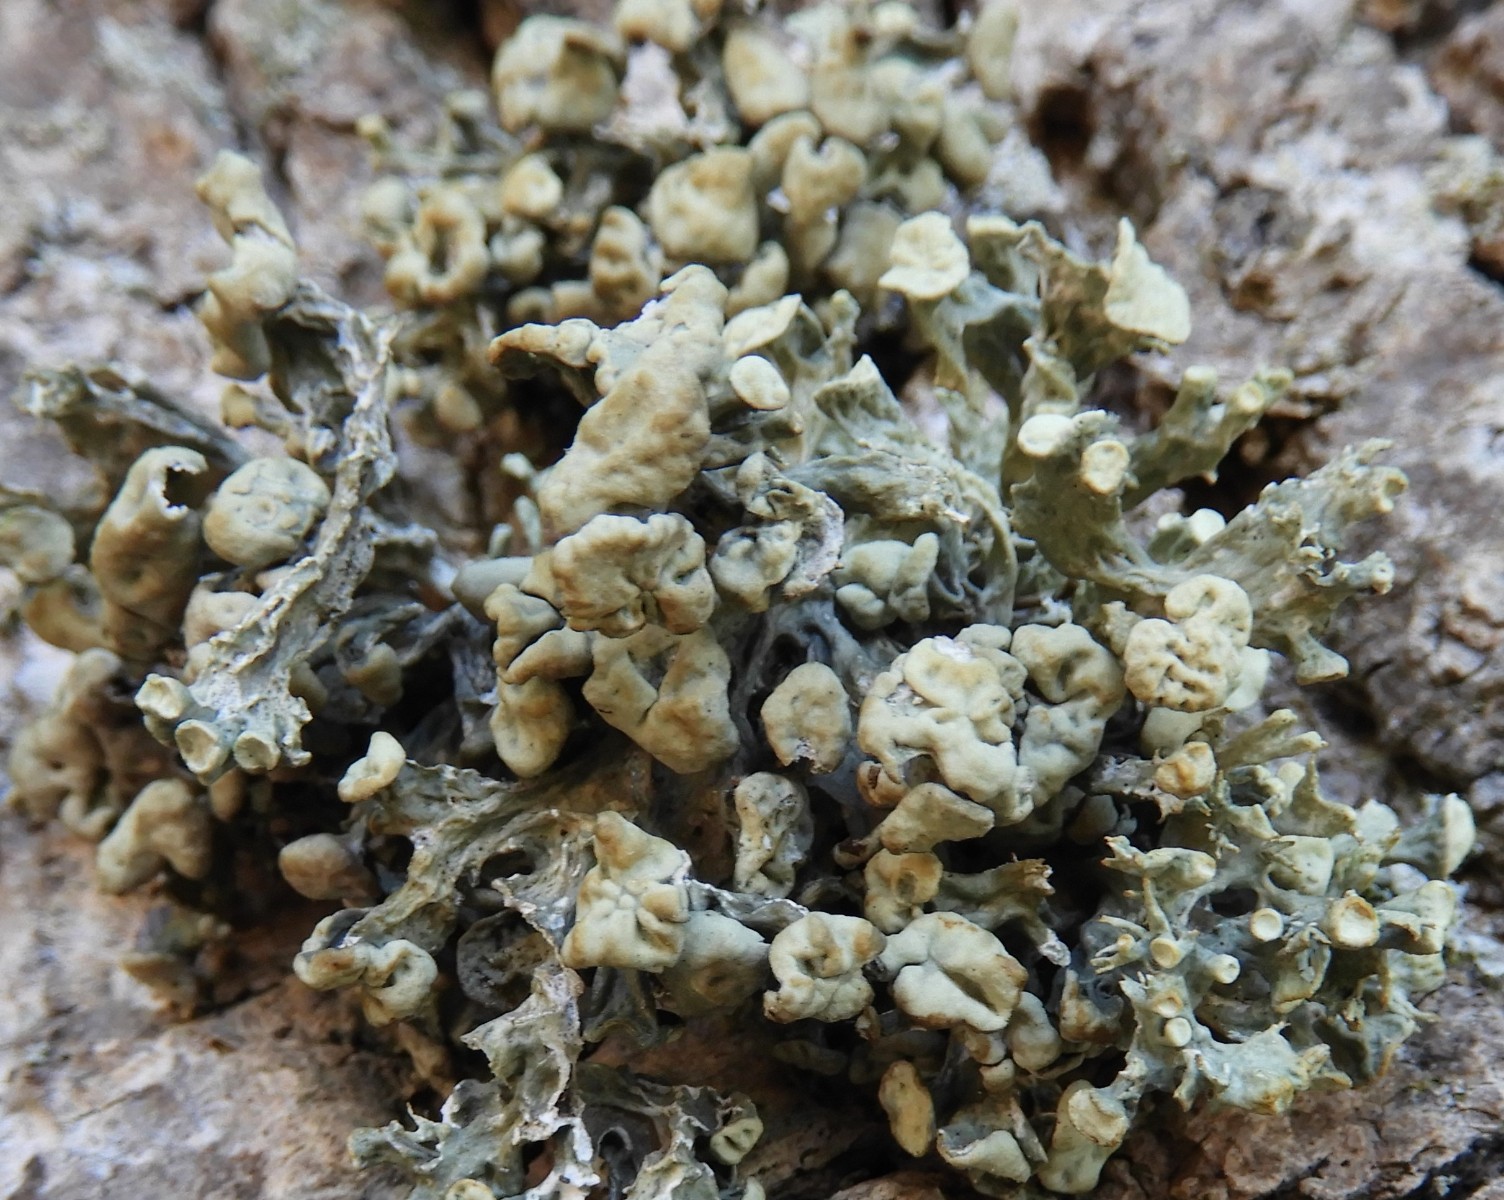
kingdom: Fungi
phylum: Ascomycota
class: Lecanoromycetes
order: Lecanorales
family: Ramalinaceae
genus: Ramalina
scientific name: Ramalina fastigiata
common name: tue-grenlav
